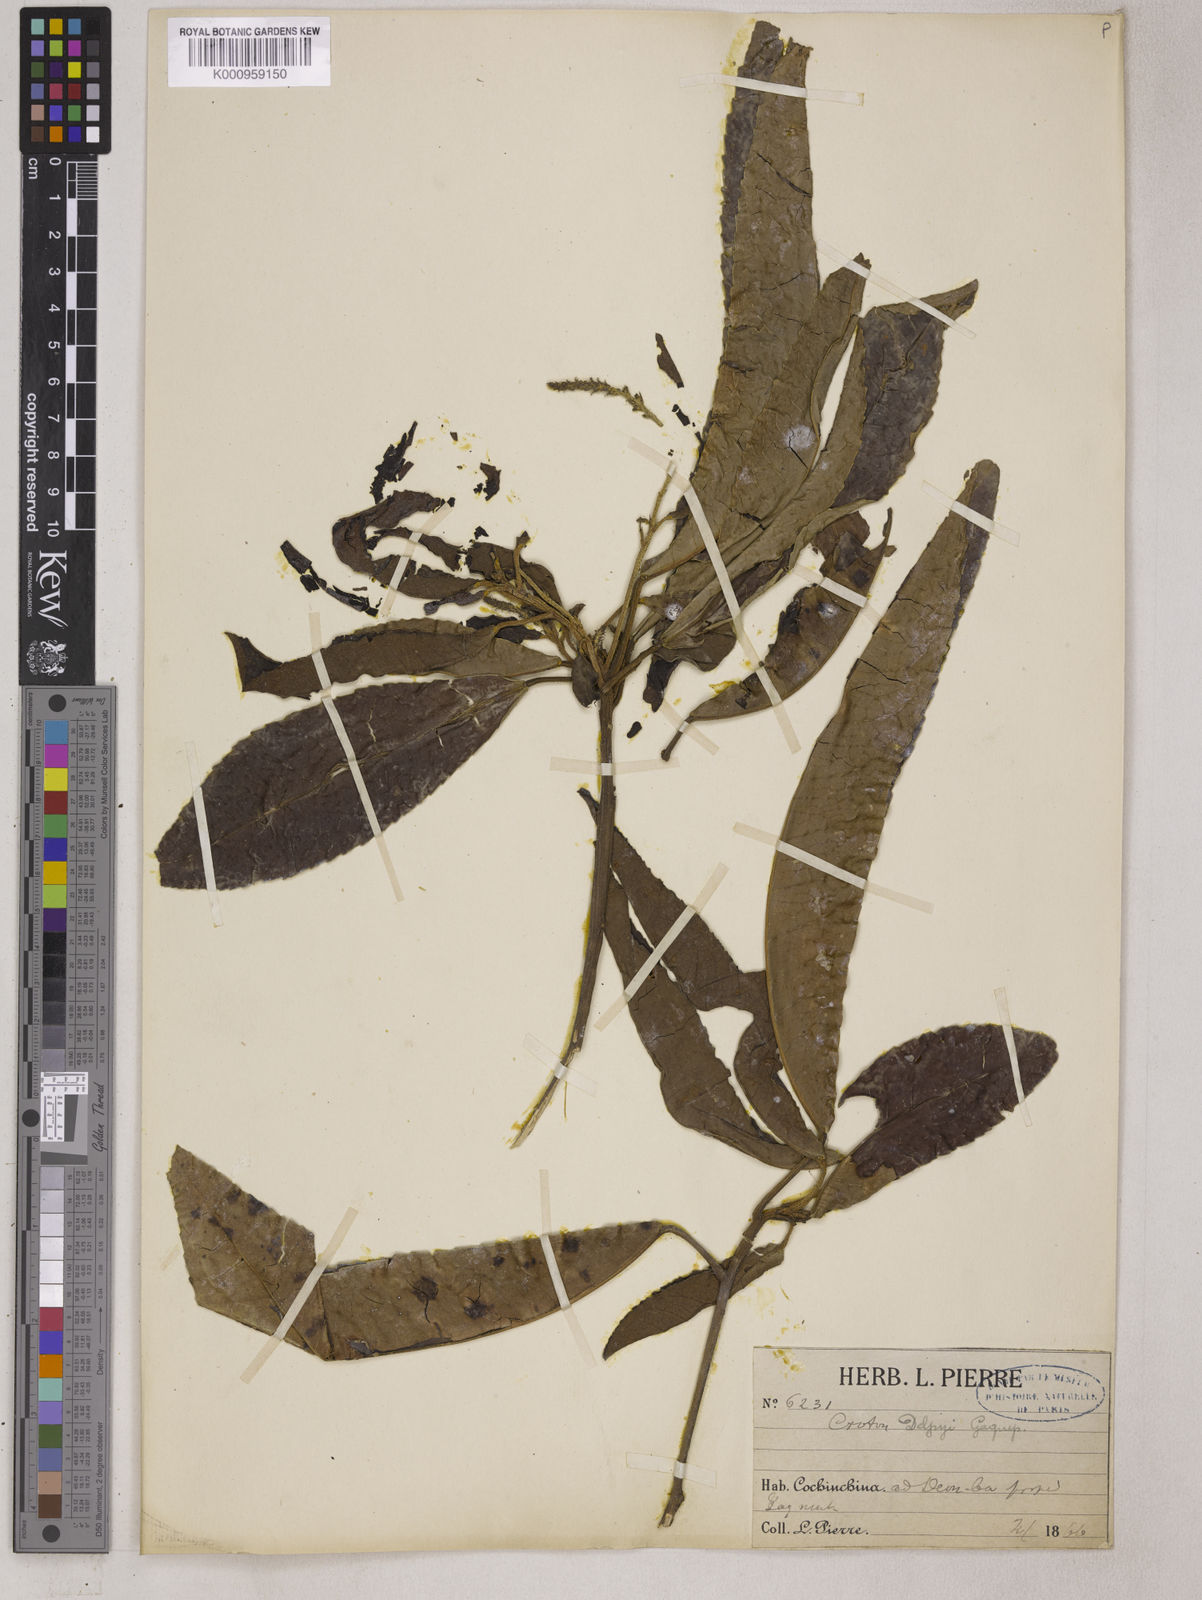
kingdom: Plantae
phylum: Tracheophyta
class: Magnoliopsida
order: Malpighiales
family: Euphorbiaceae
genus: Croton
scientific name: Croton delpyi
